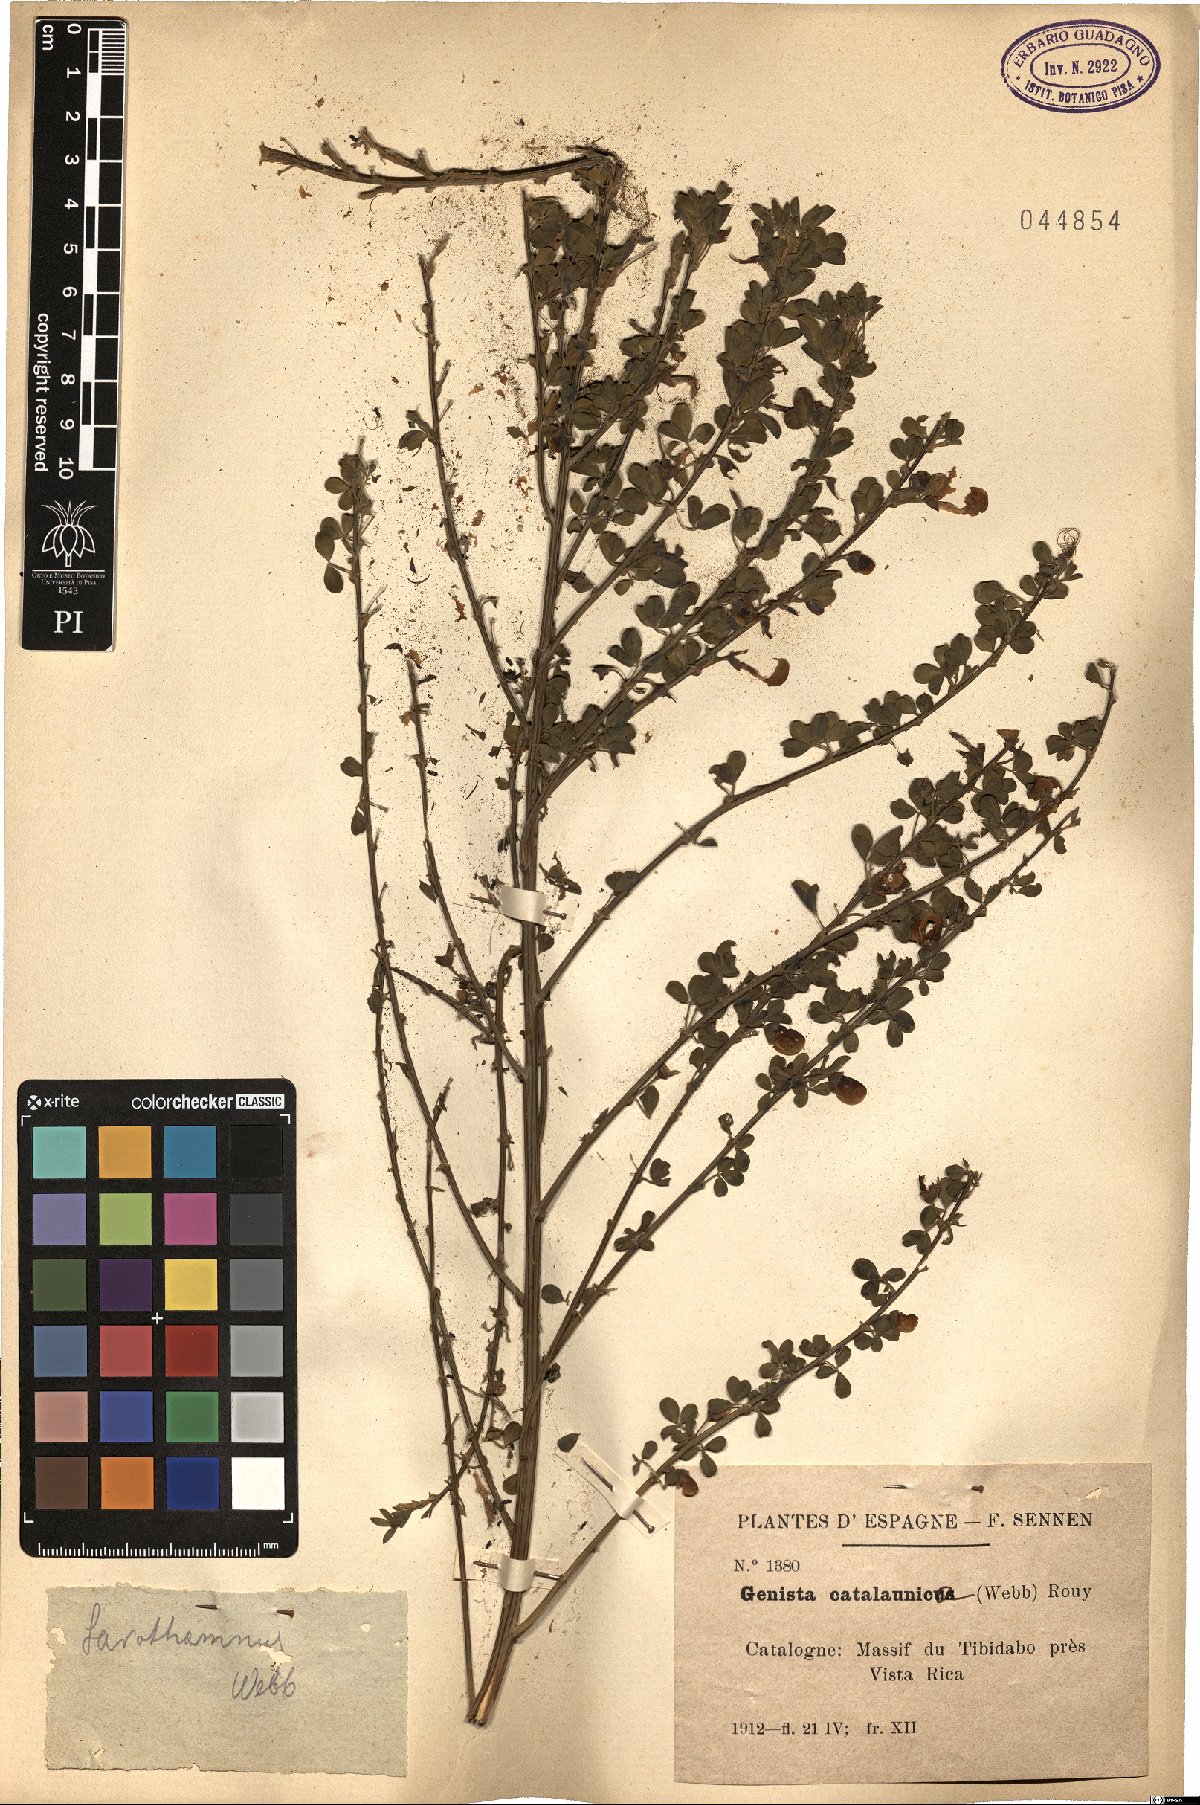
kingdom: Plantae
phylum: Tracheophyta
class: Magnoliopsida
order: Fabales
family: Fabaceae
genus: Cytisus
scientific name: Cytisus arboreus
